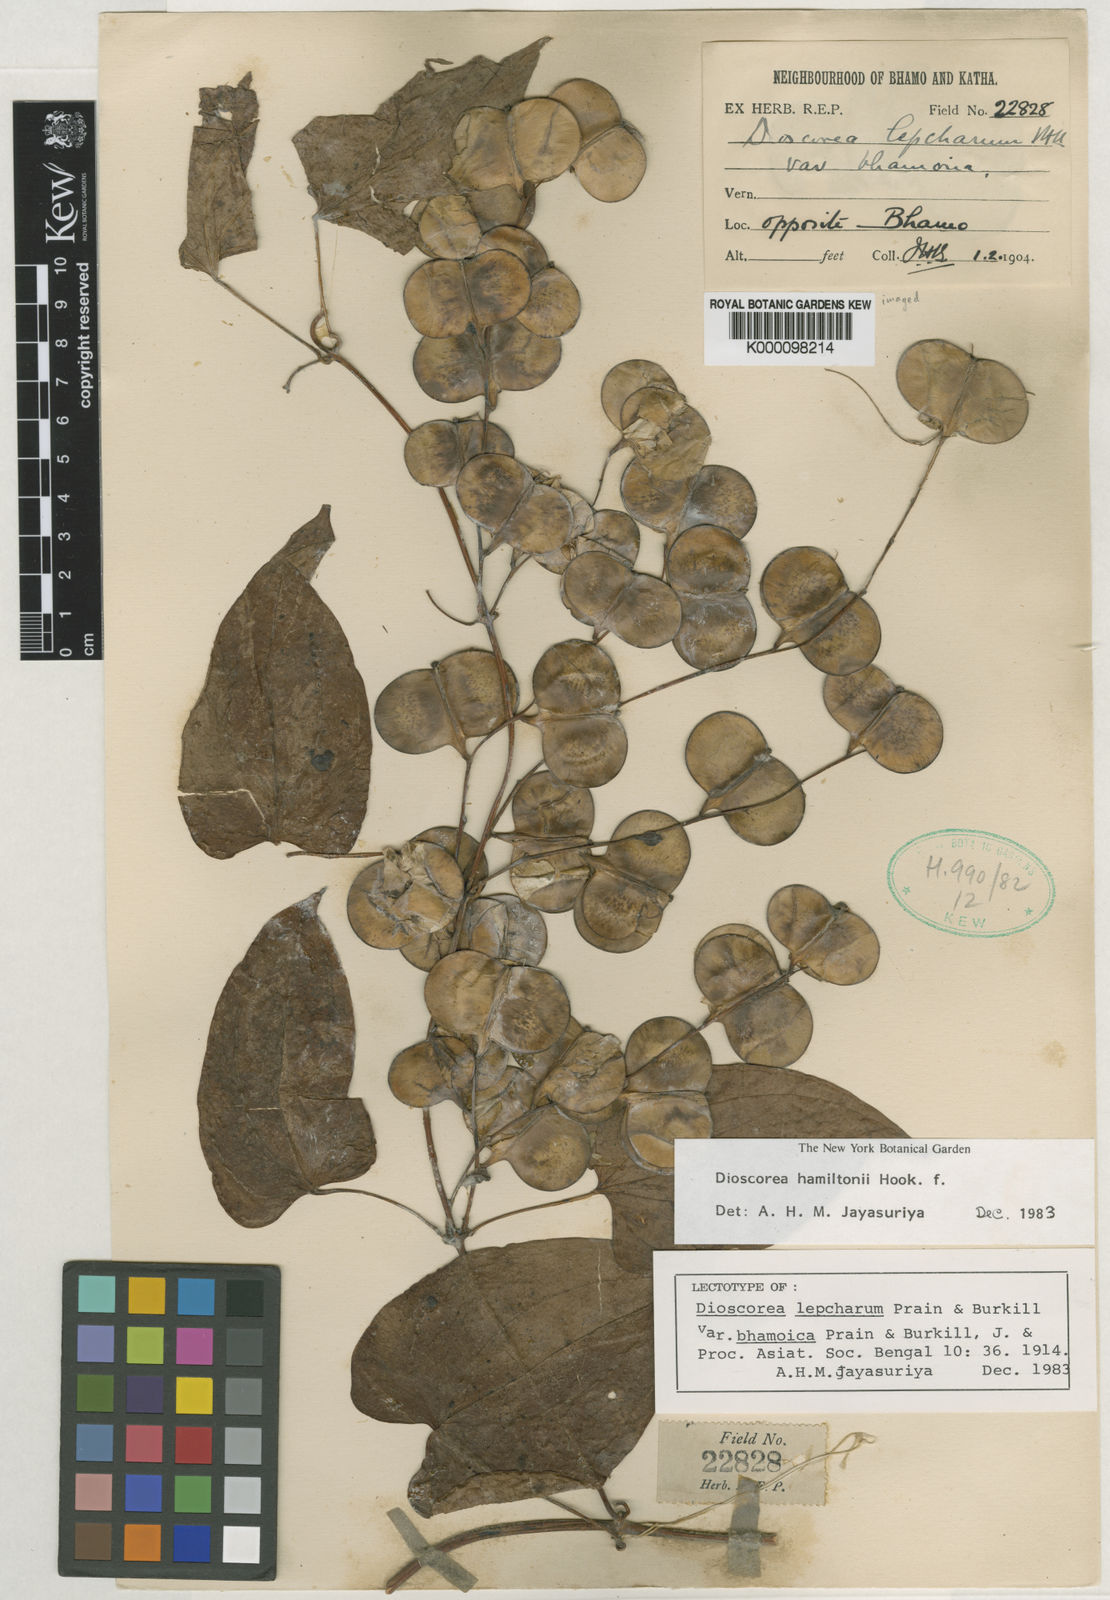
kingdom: Plantae
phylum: Tracheophyta
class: Liliopsida
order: Dioscoreales
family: Dioscoreaceae
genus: Dioscorea
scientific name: Dioscorea lepcharum
